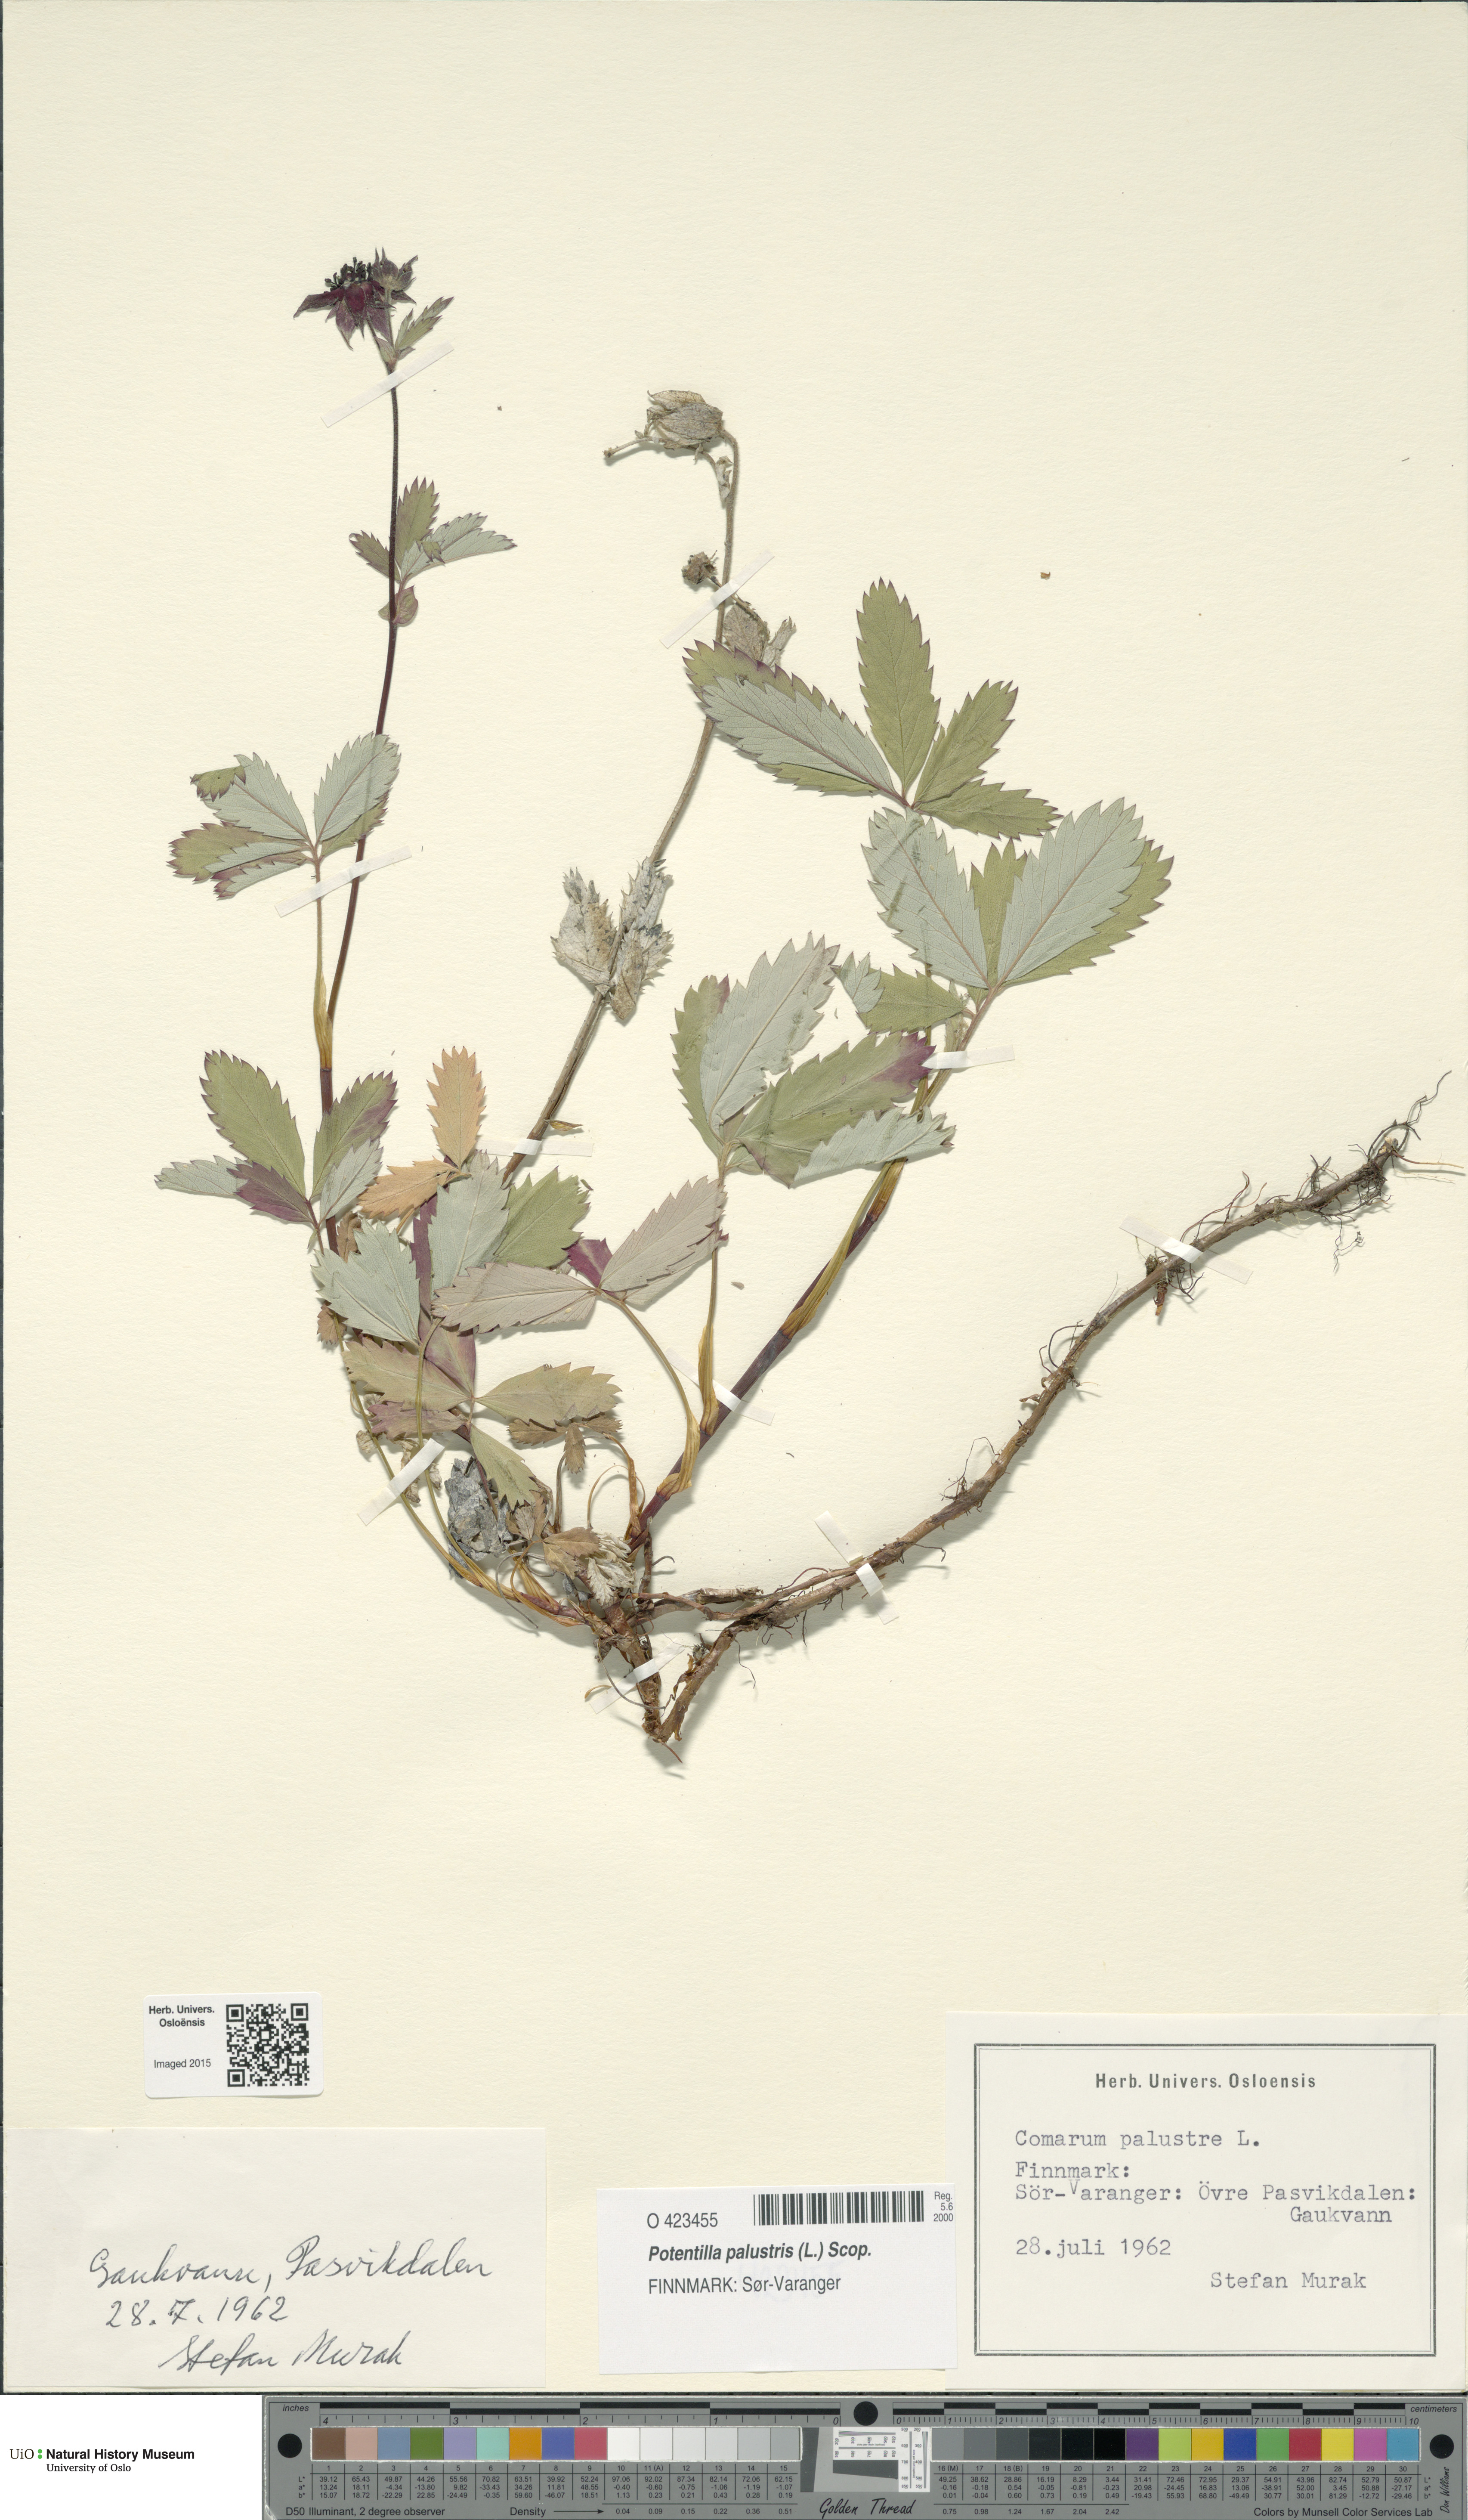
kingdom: Plantae
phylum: Tracheophyta
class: Magnoliopsida
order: Rosales
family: Rosaceae
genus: Comarum
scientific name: Comarum palustre
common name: Marsh cinquefoil
